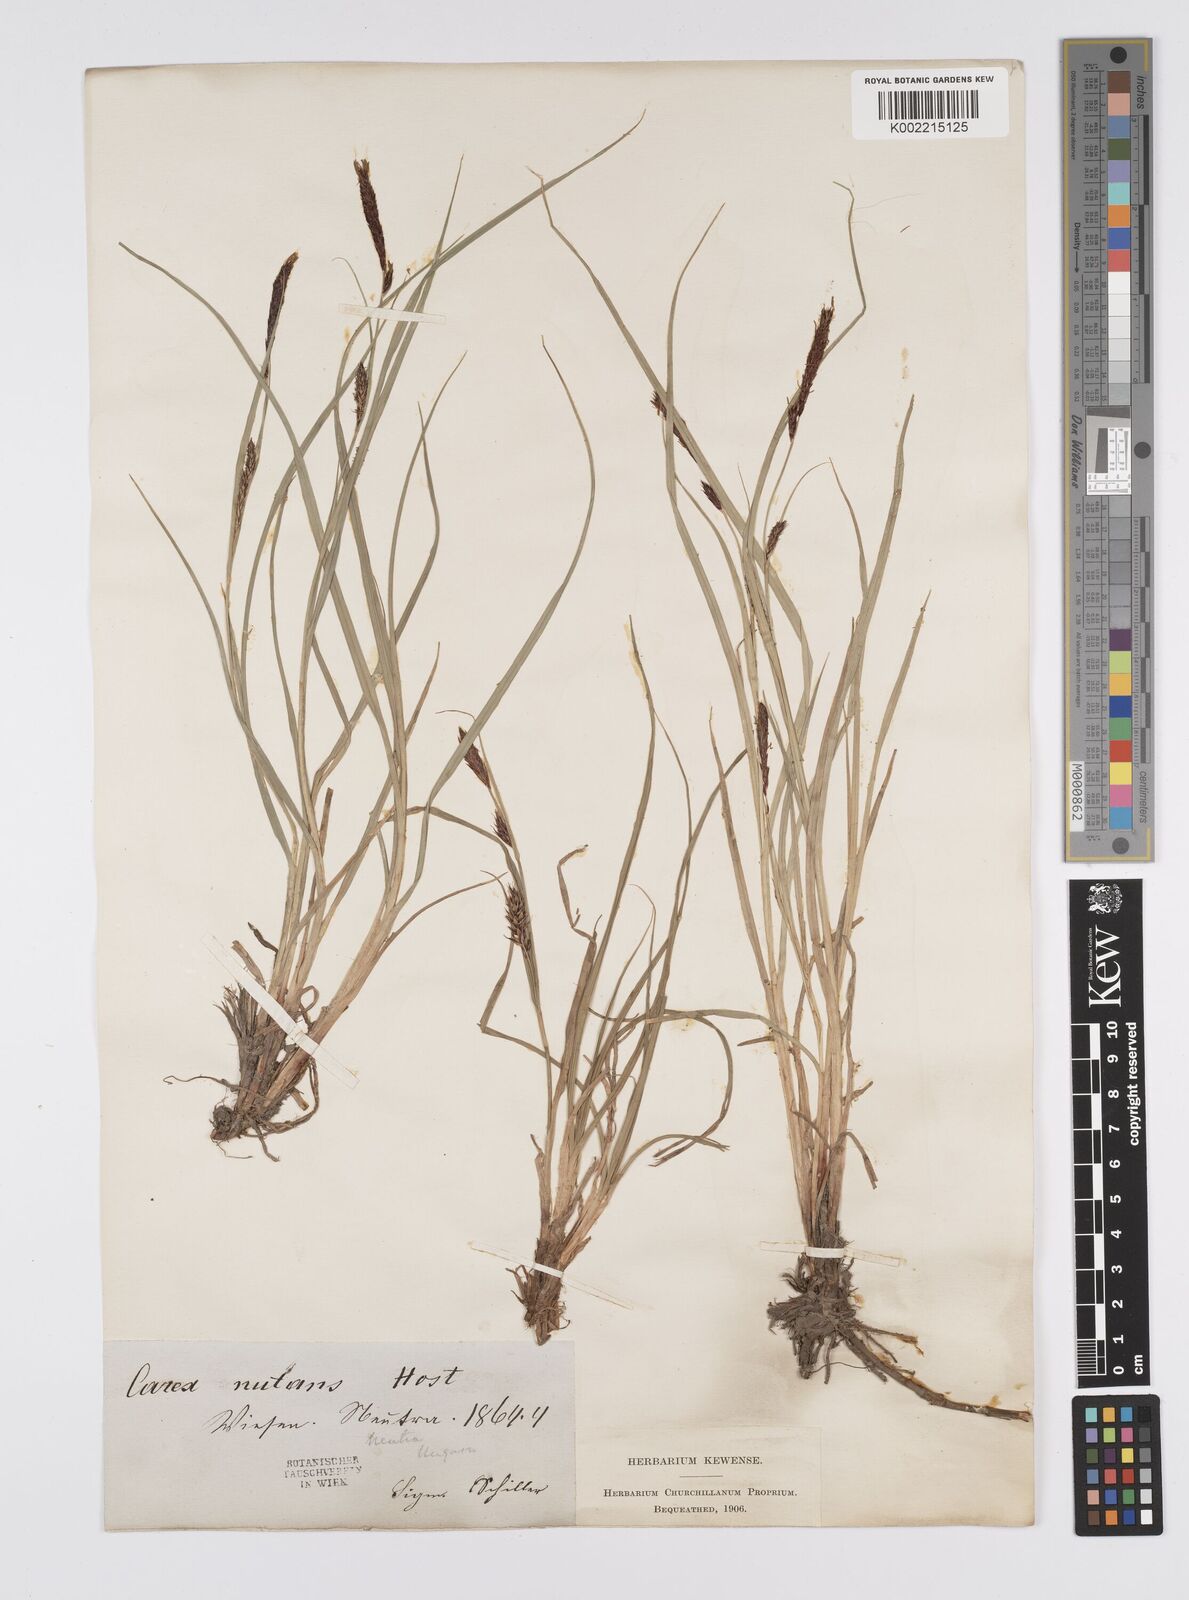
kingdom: Plantae
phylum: Tracheophyta
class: Liliopsida
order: Poales
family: Cyperaceae
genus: Carex
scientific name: Carex melanostachya
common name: Black-spiked sedge
